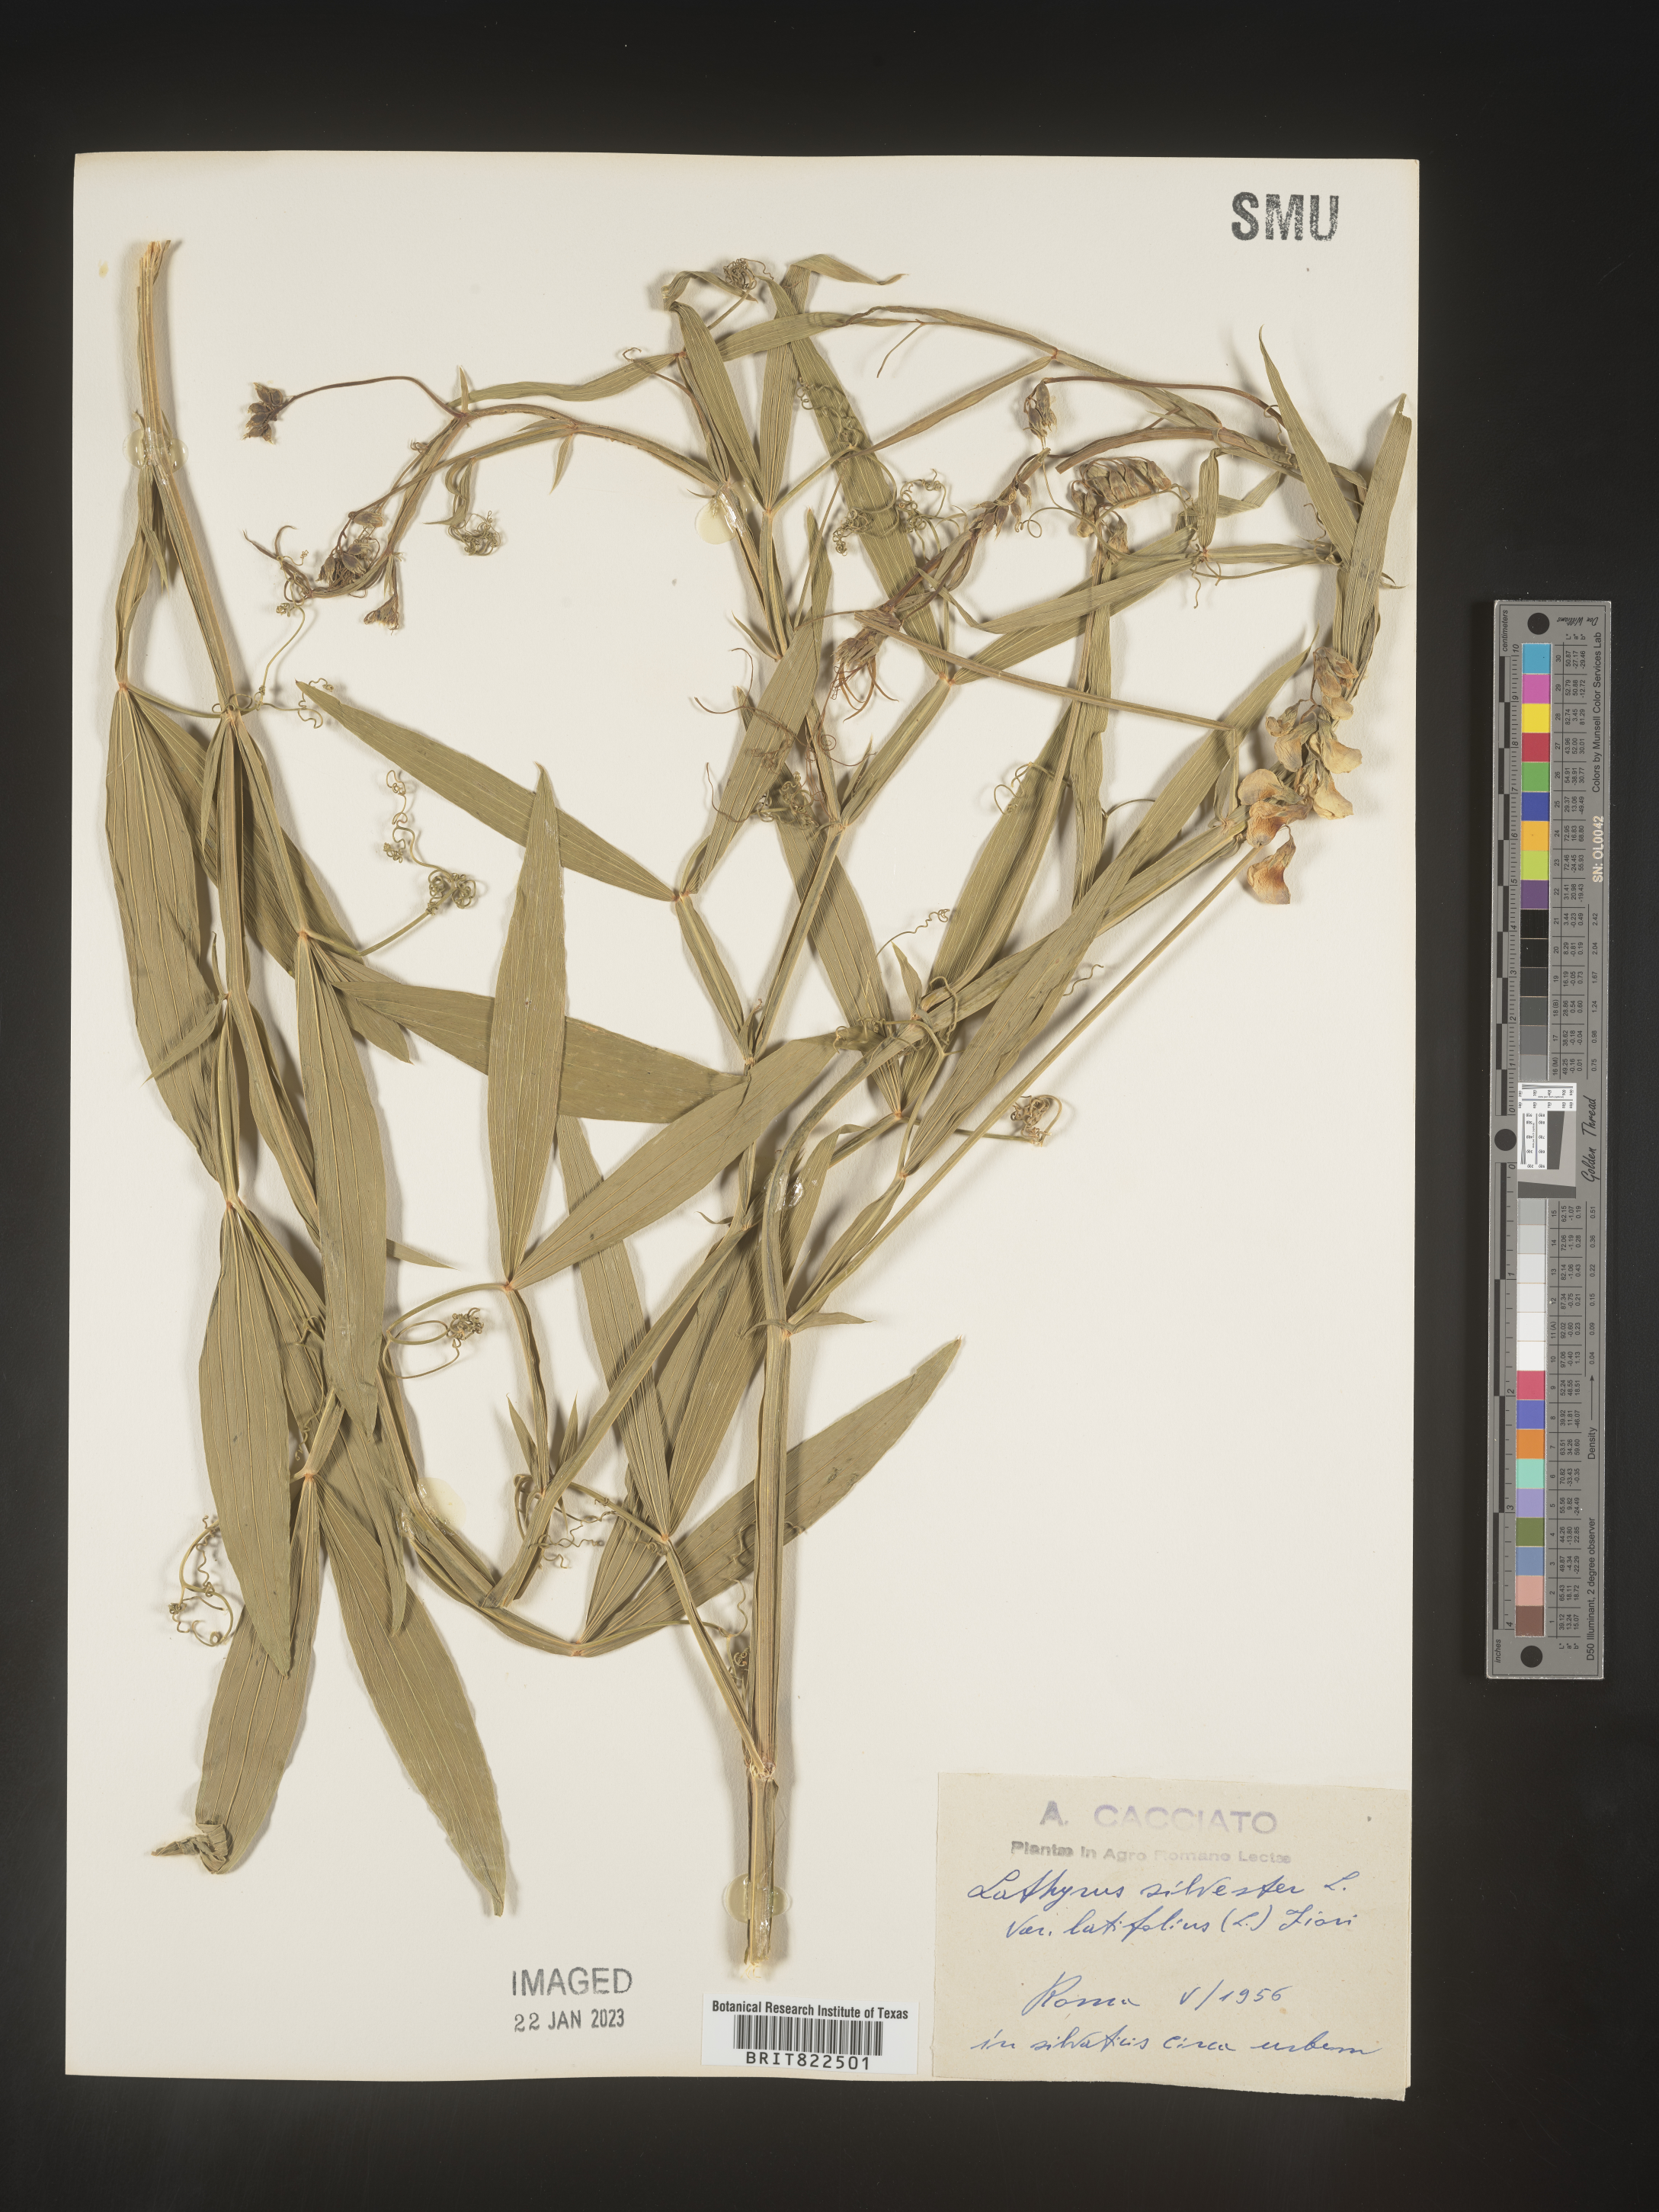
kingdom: Plantae
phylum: Tracheophyta
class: Magnoliopsida
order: Fabales
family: Fabaceae
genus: Lathyrus
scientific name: Lathyrus
